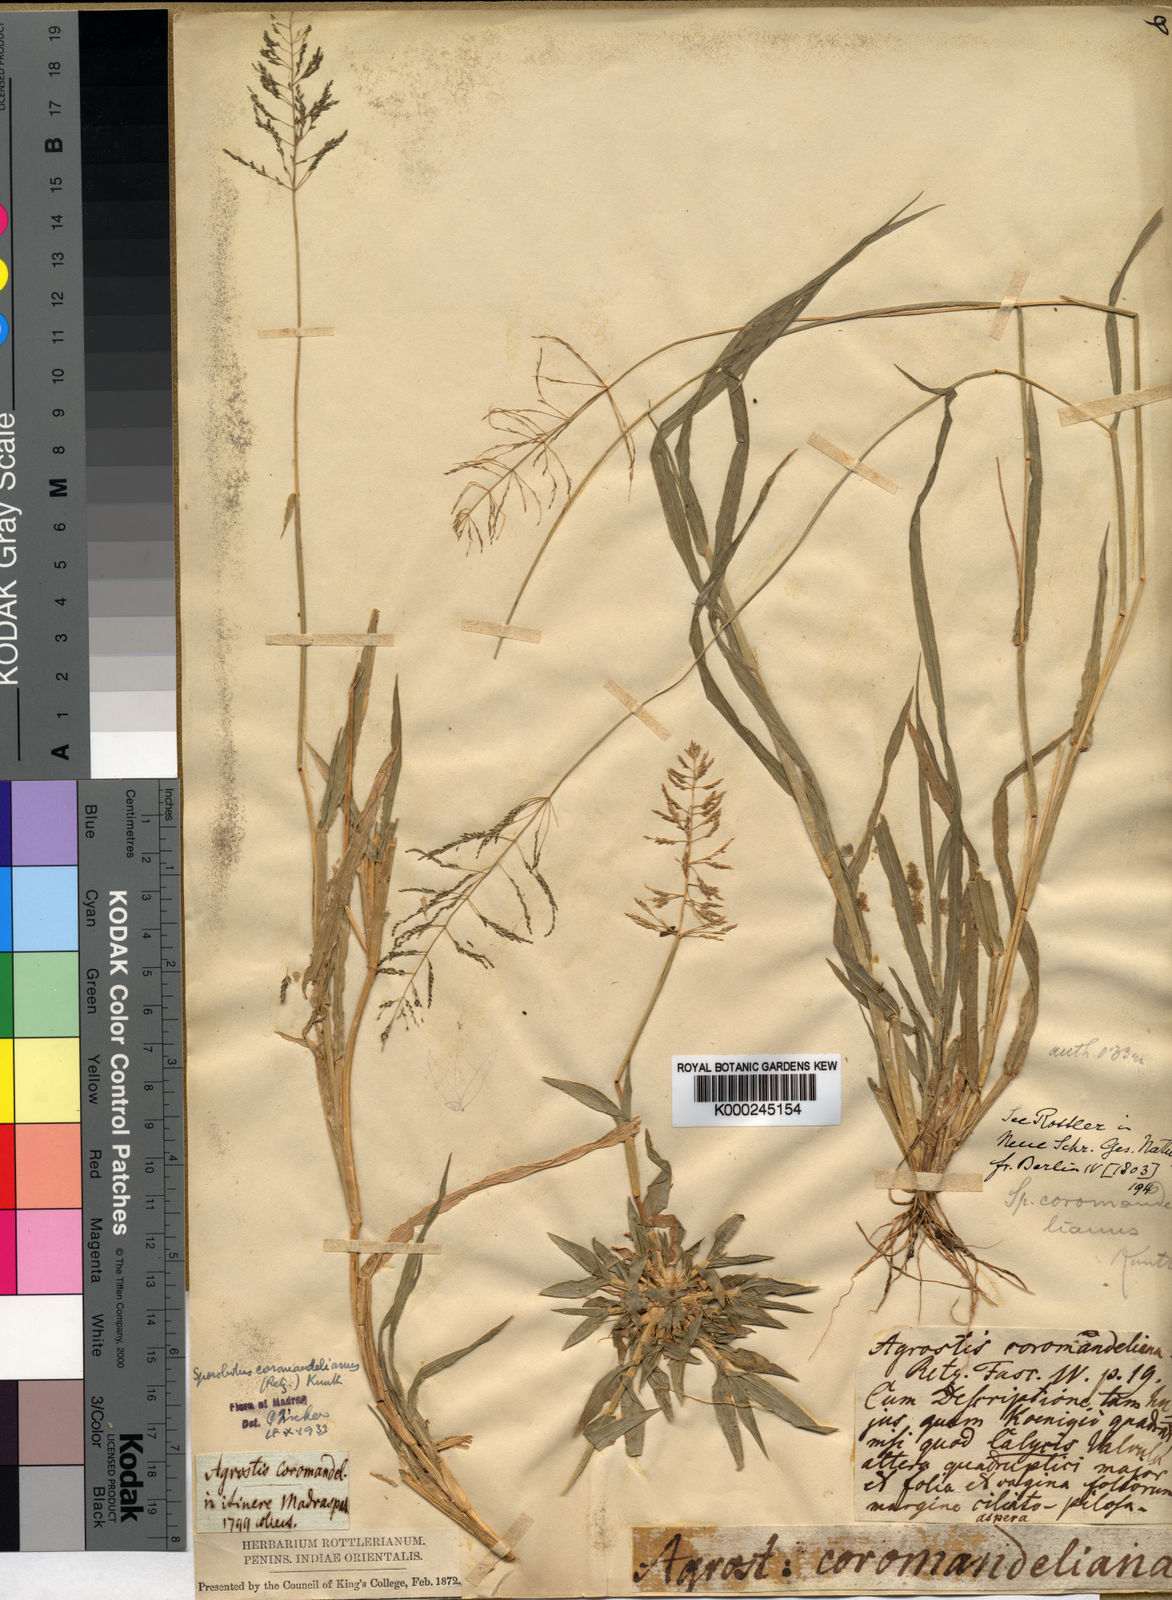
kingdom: Plantae
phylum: Tracheophyta
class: Liliopsida
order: Poales
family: Poaceae
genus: Sporobolus
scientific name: Sporobolus coromandelianus
